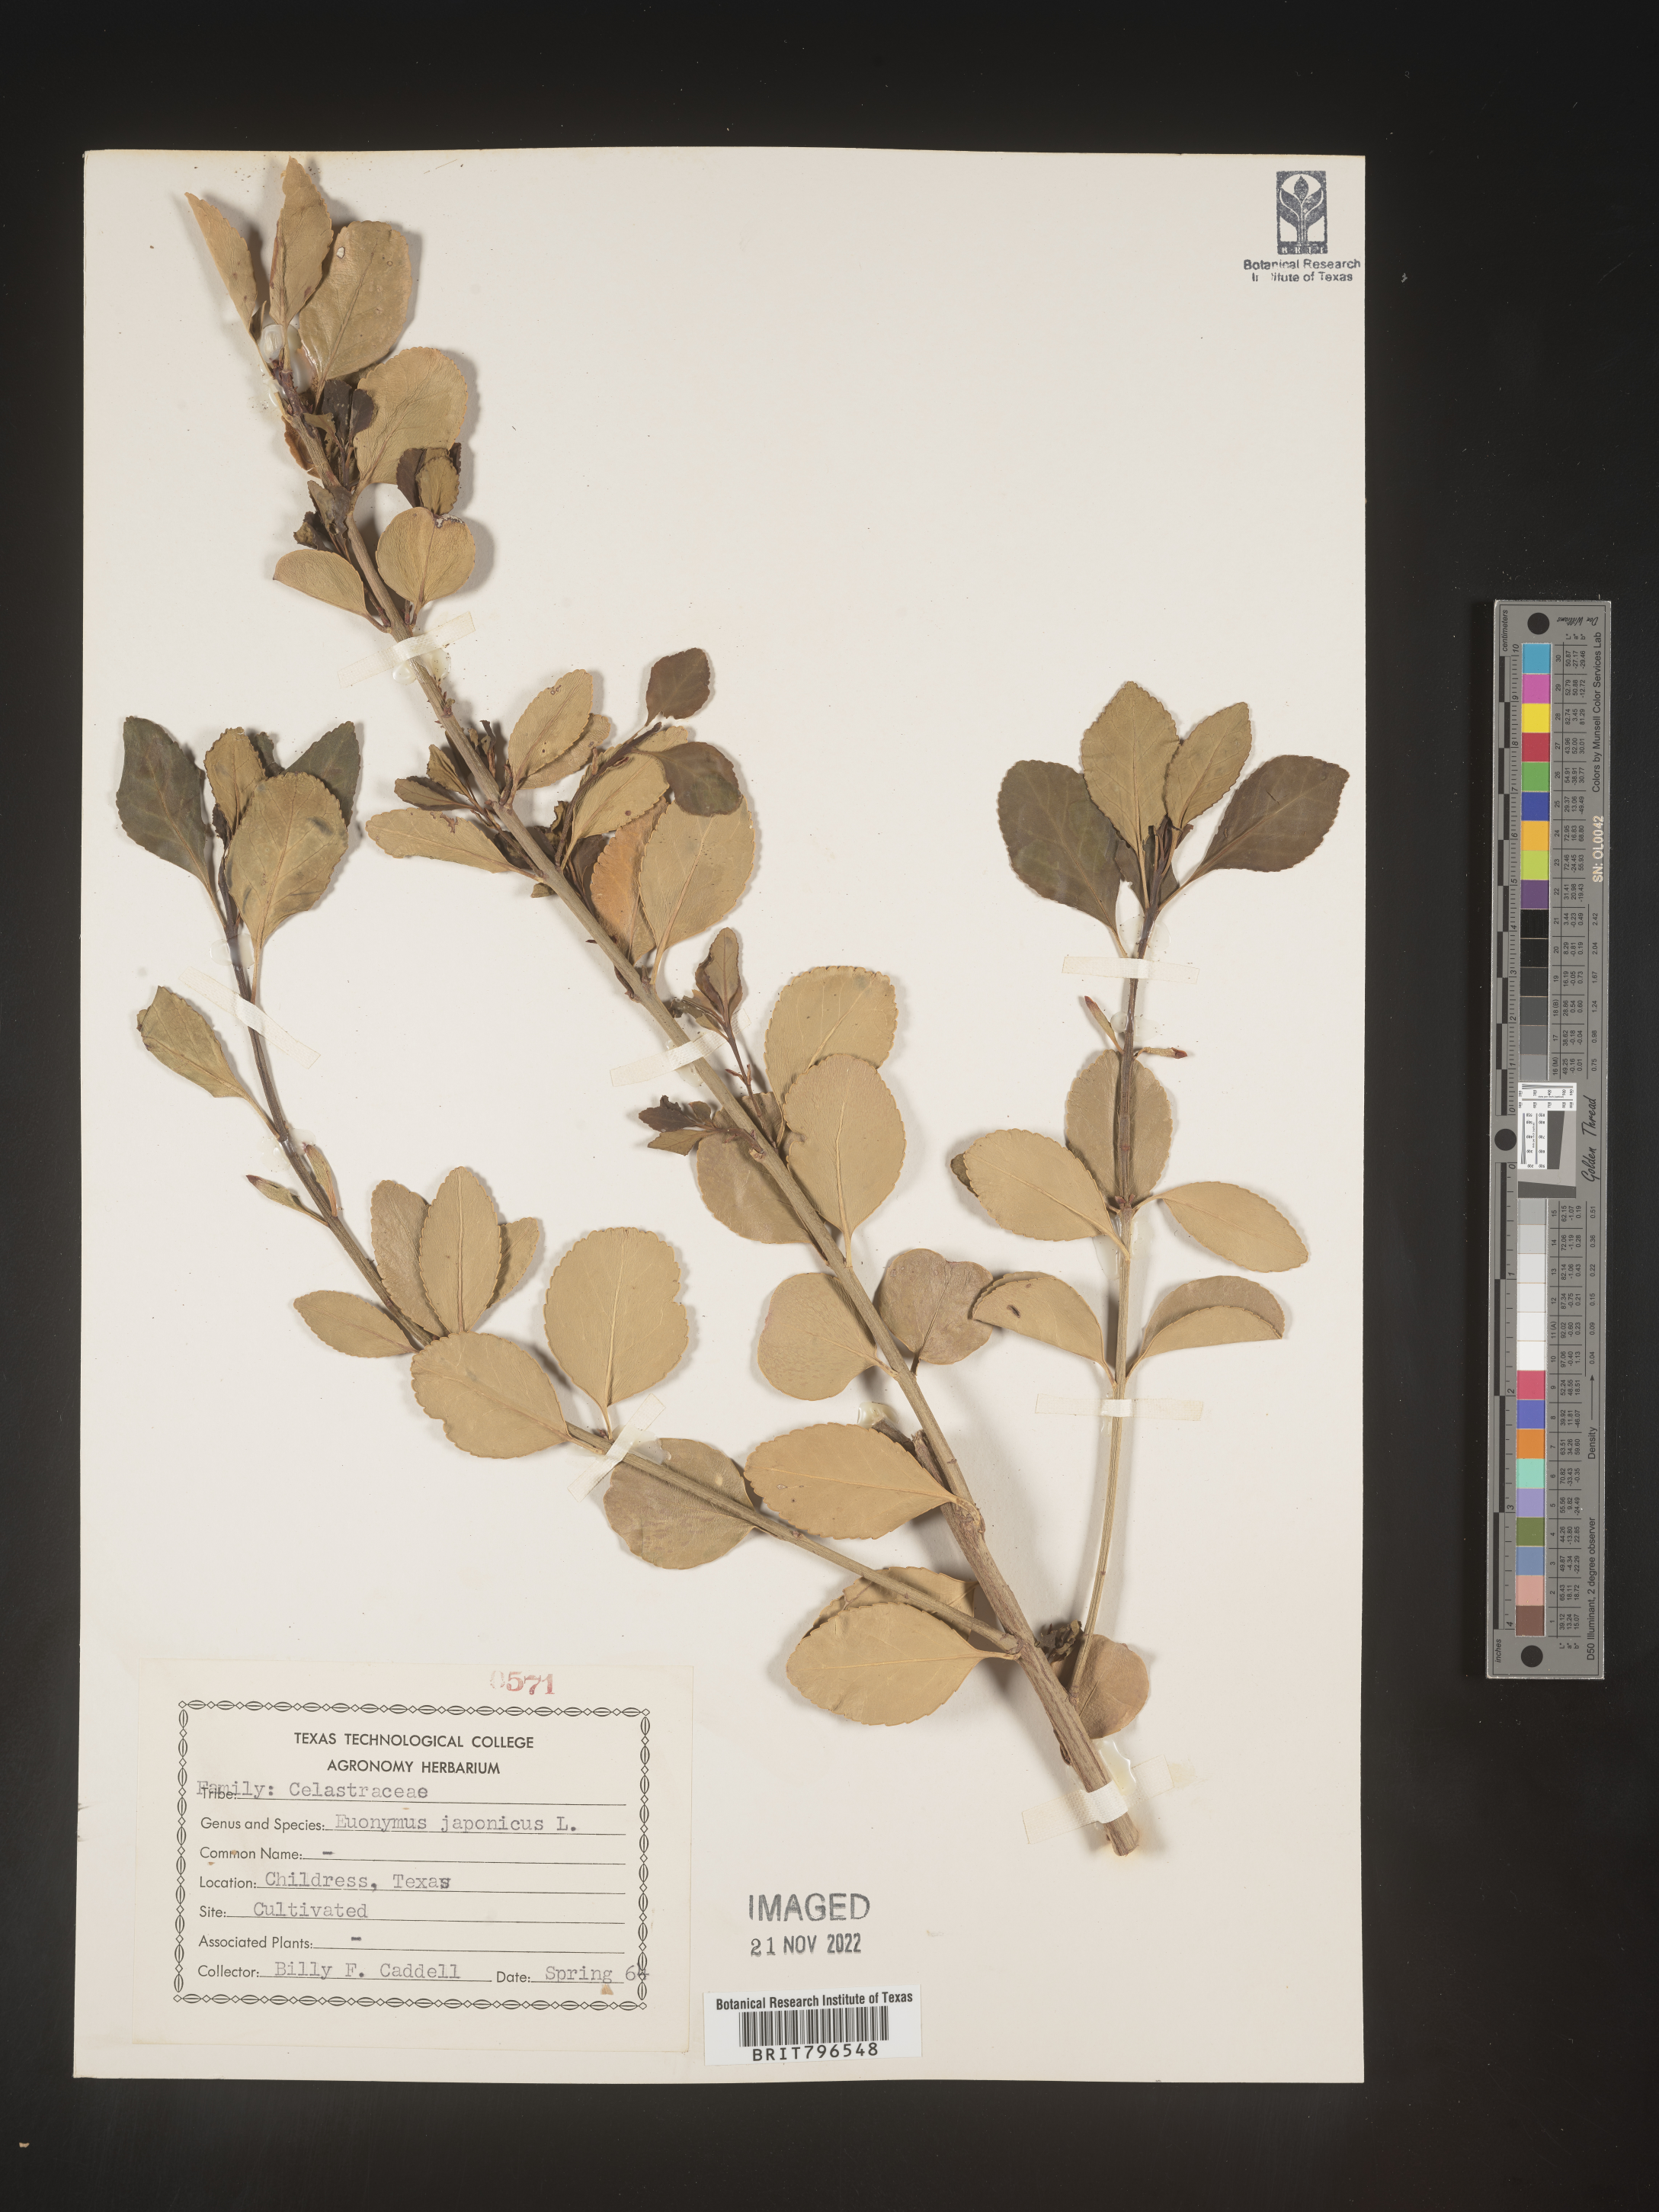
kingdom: Plantae
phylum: Tracheophyta
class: Magnoliopsida
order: Celastrales
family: Celastraceae
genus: Euonymus
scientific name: Euonymus
